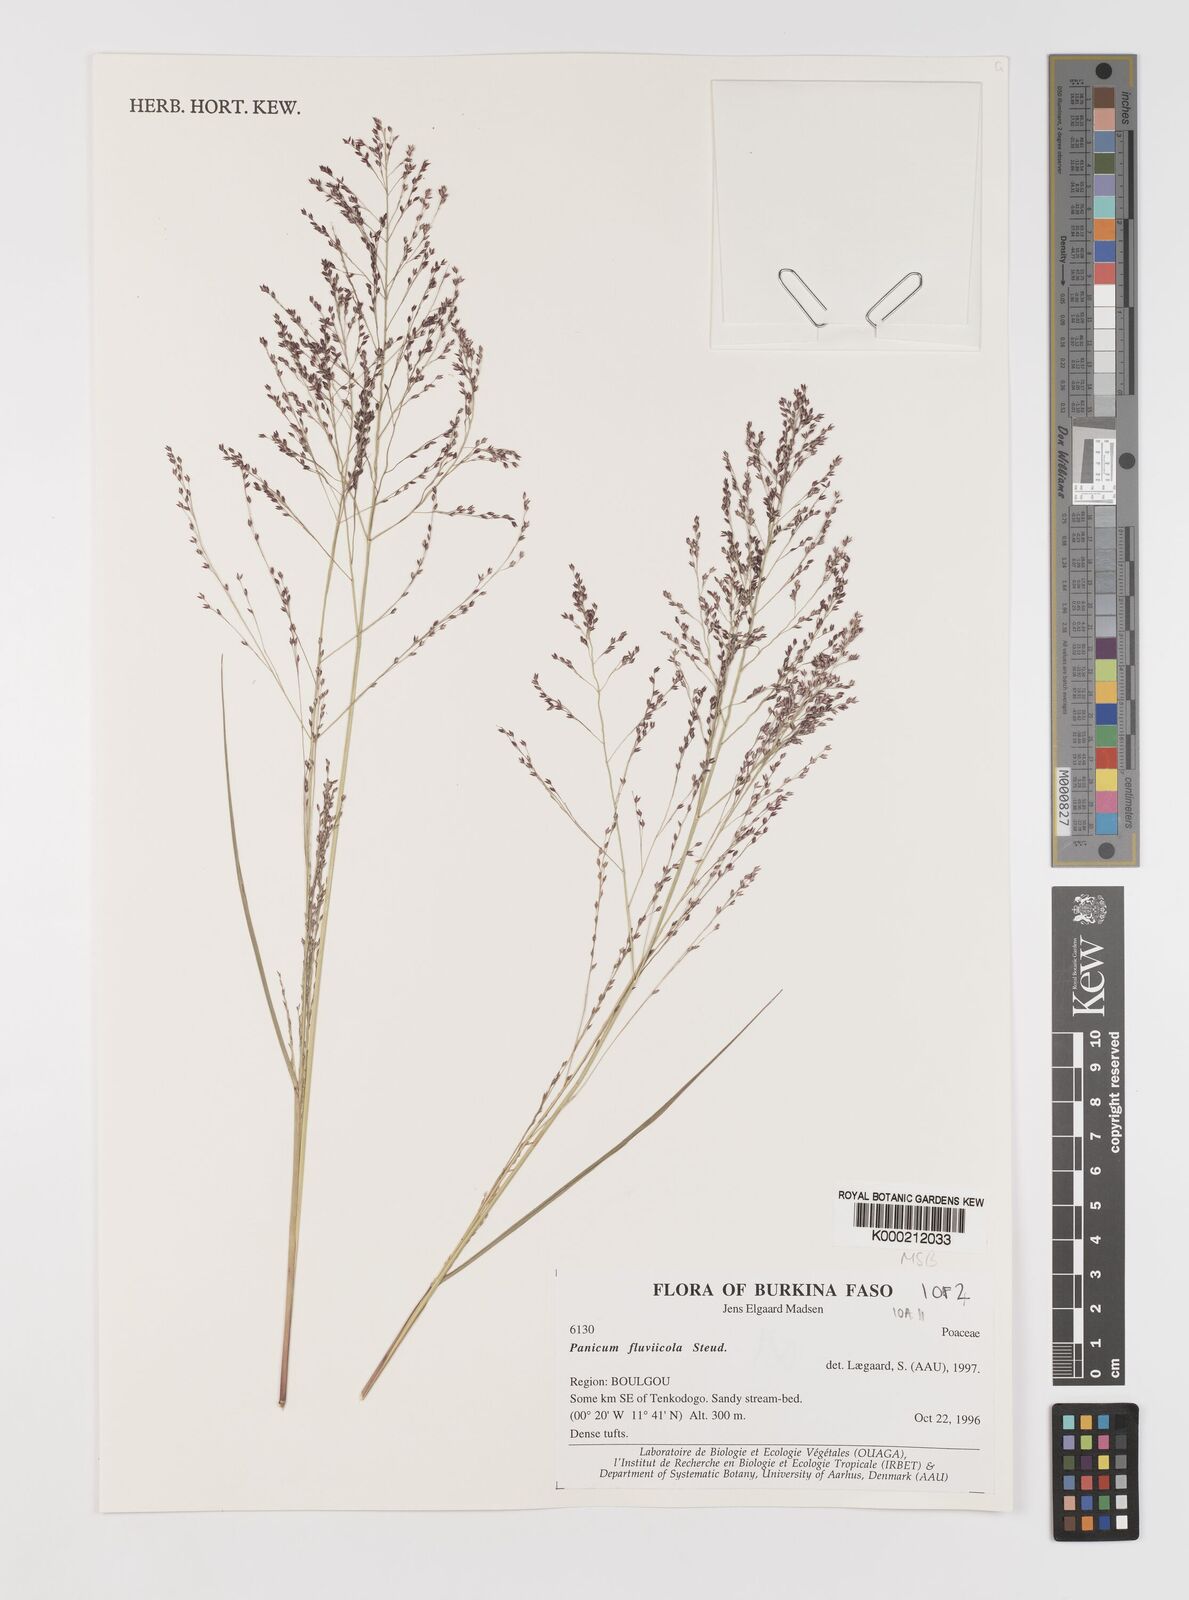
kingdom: Plantae
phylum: Tracheophyta
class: Liliopsida
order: Poales
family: Poaceae
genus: Panicum
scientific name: Panicum fluviicola
